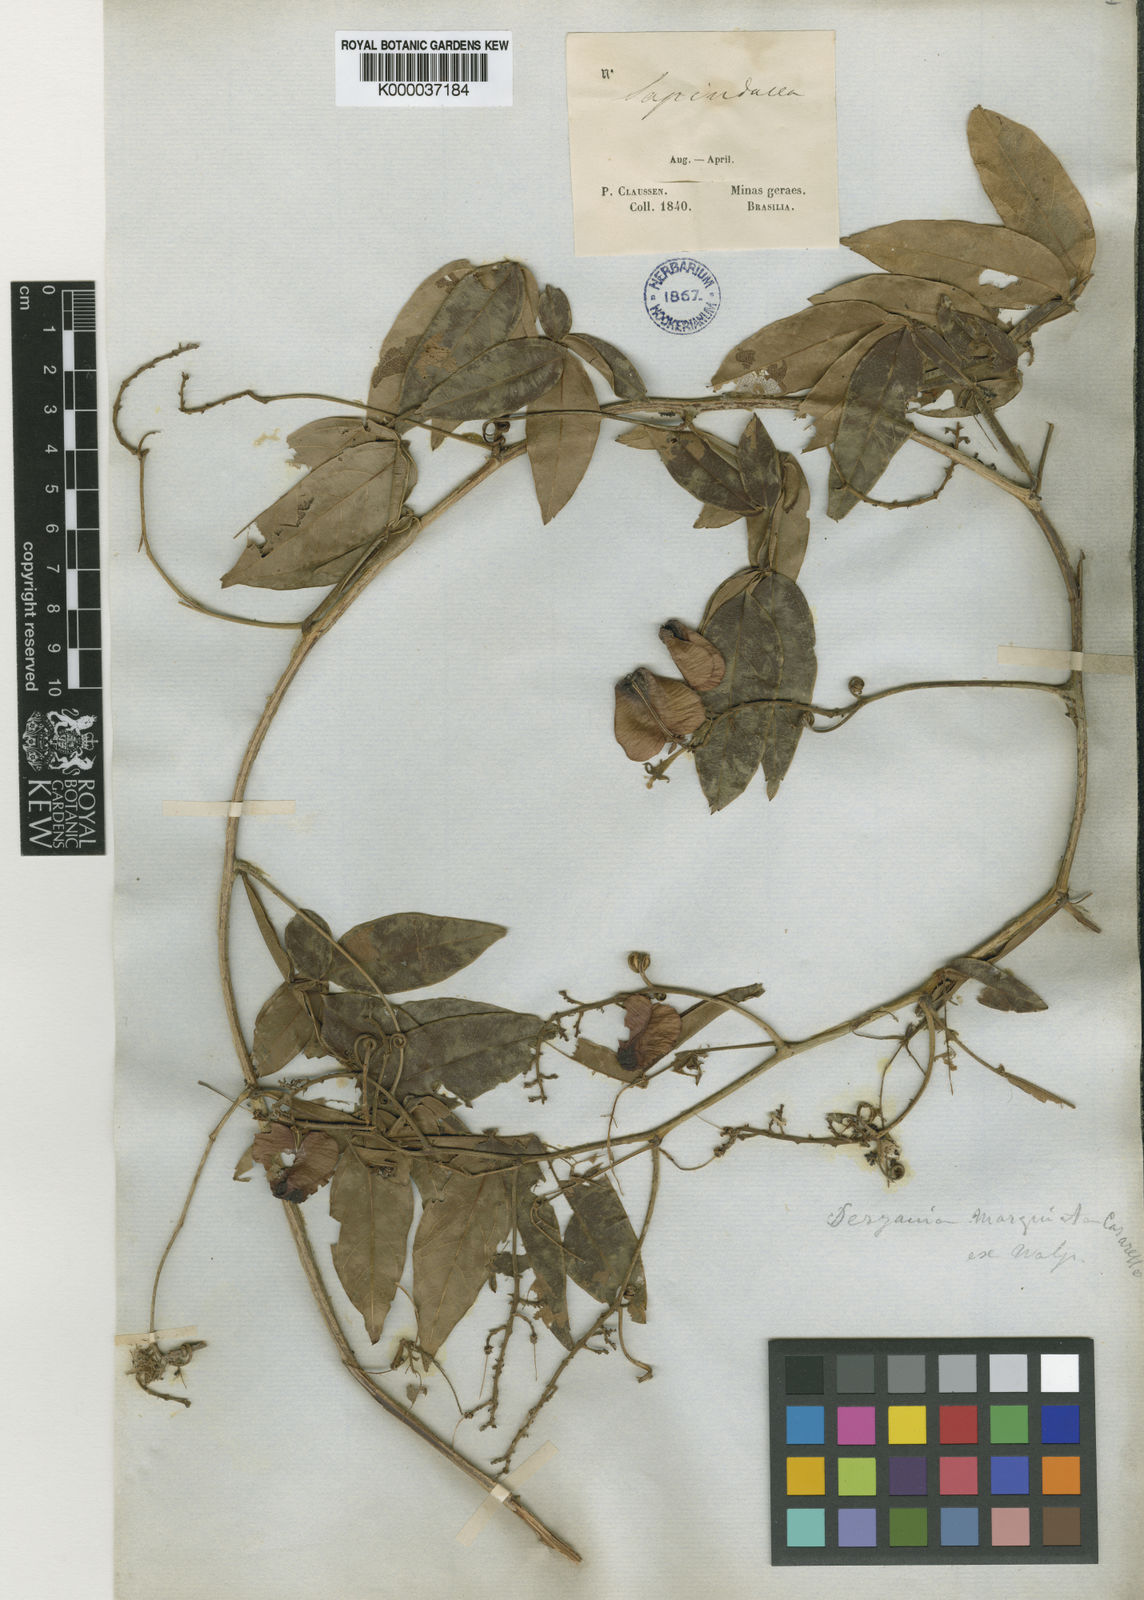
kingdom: Plantae
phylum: Tracheophyta
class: Magnoliopsida
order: Sapindales
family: Sapindaceae
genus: Serjania
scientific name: Serjania
